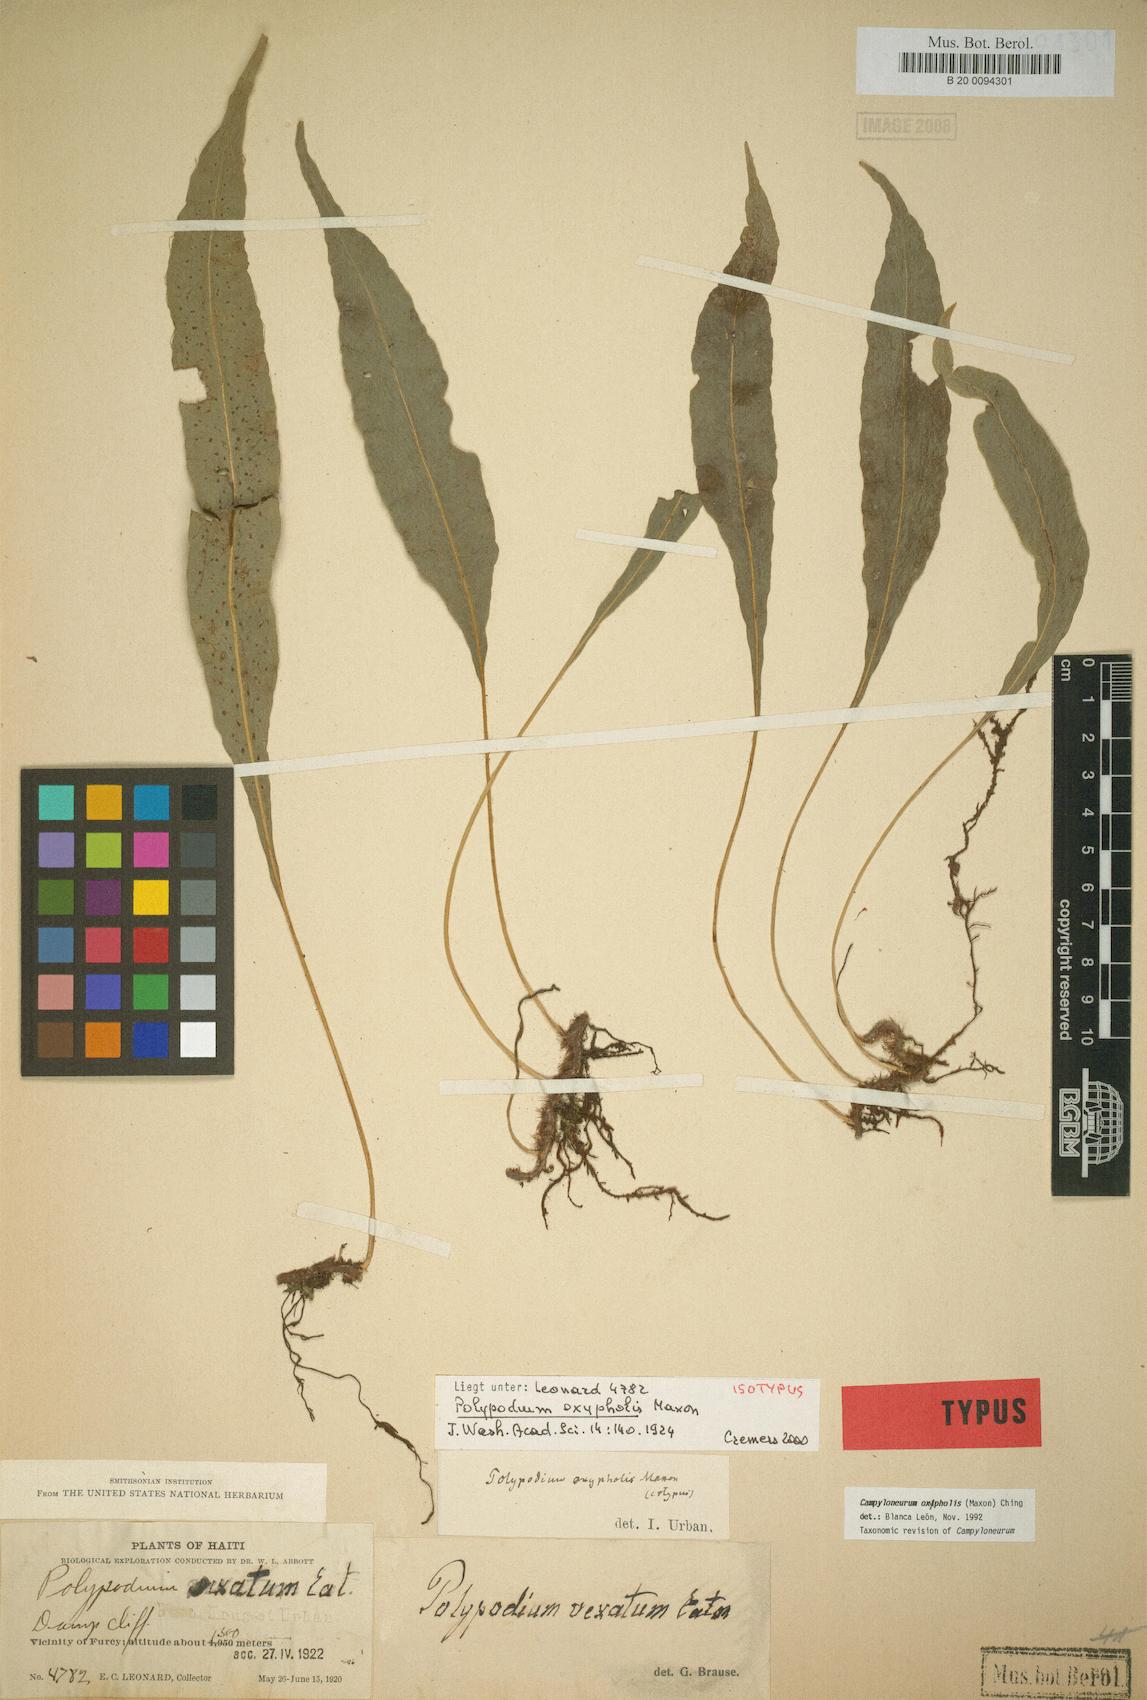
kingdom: Plantae
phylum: Tracheophyta
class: Polypodiopsida
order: Polypodiales
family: Polypodiaceae
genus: Campyloneurum
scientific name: Campyloneurum oxypholis
